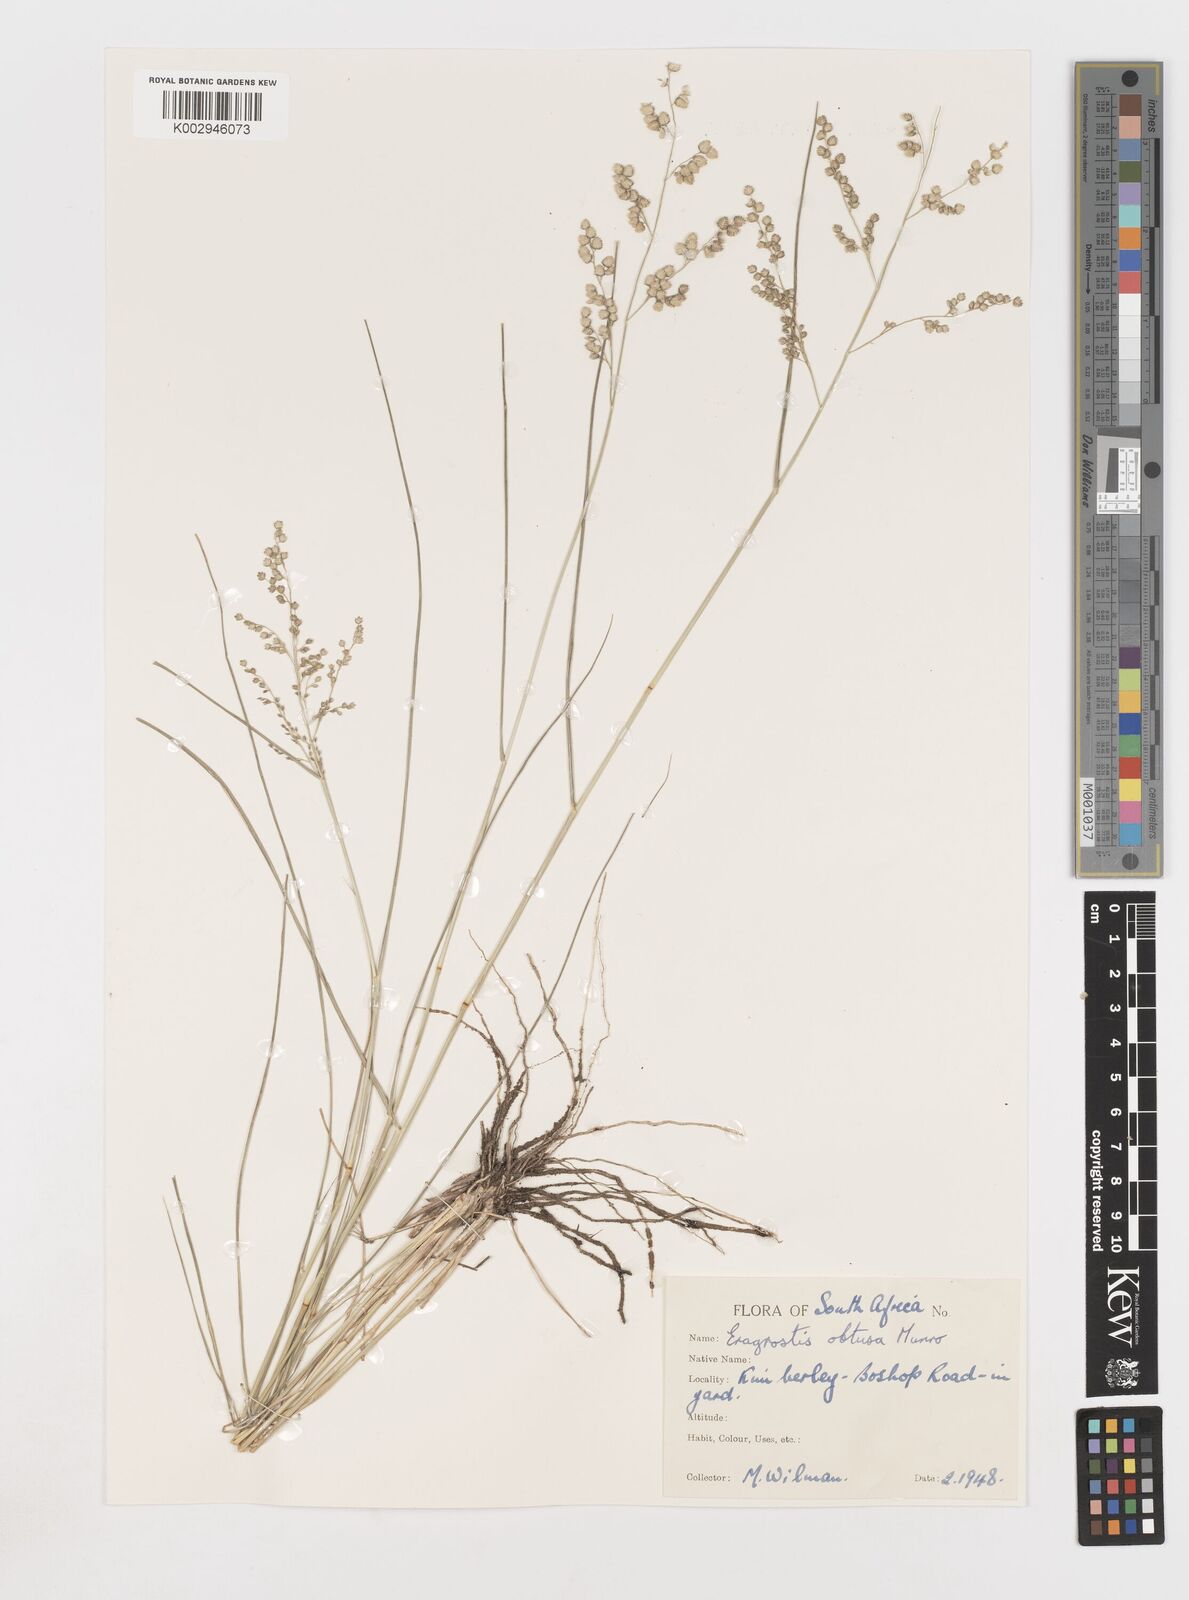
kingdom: Plantae
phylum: Tracheophyta
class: Liliopsida
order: Poales
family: Poaceae
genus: Eragrostis
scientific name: Eragrostis obtusa
